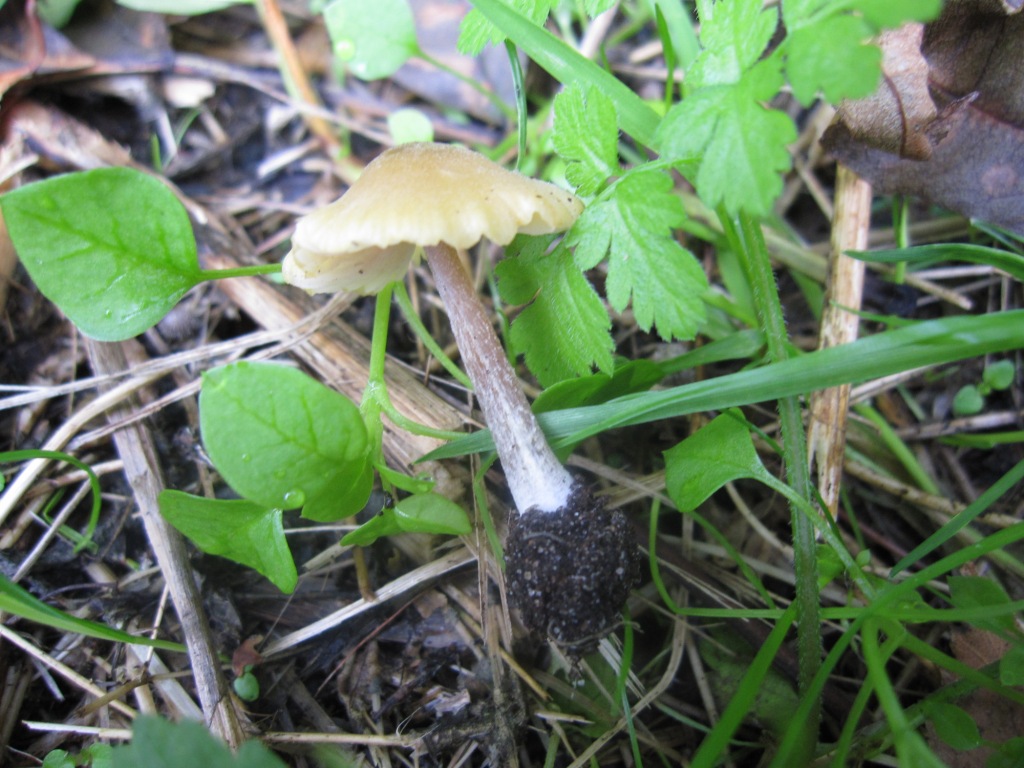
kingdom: Fungi
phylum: Basidiomycota
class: Agaricomycetes
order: Agaricales
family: Entolomataceae
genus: Entoloma
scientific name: Entoloma pleopodium
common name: duftende rødblad
